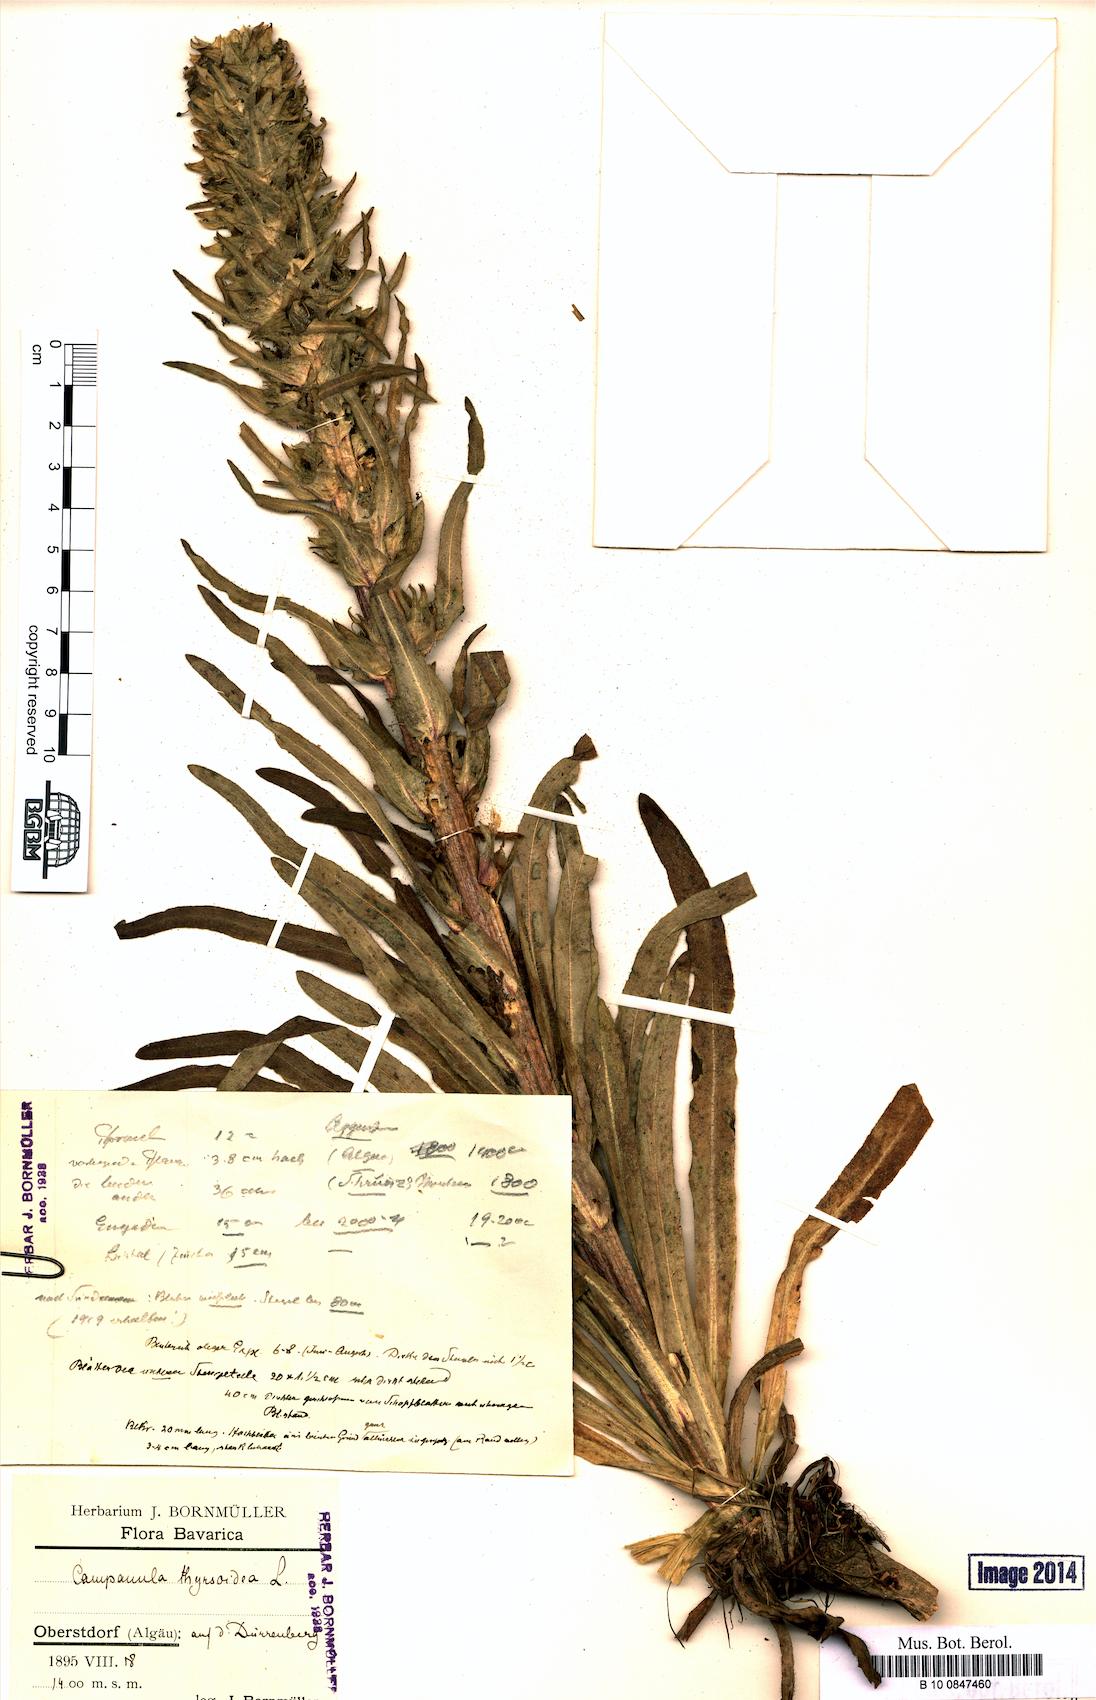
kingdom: Plantae
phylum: Tracheophyta
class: Magnoliopsida
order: Asterales
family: Campanulaceae
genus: Campanula
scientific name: Campanula thyrsoides
